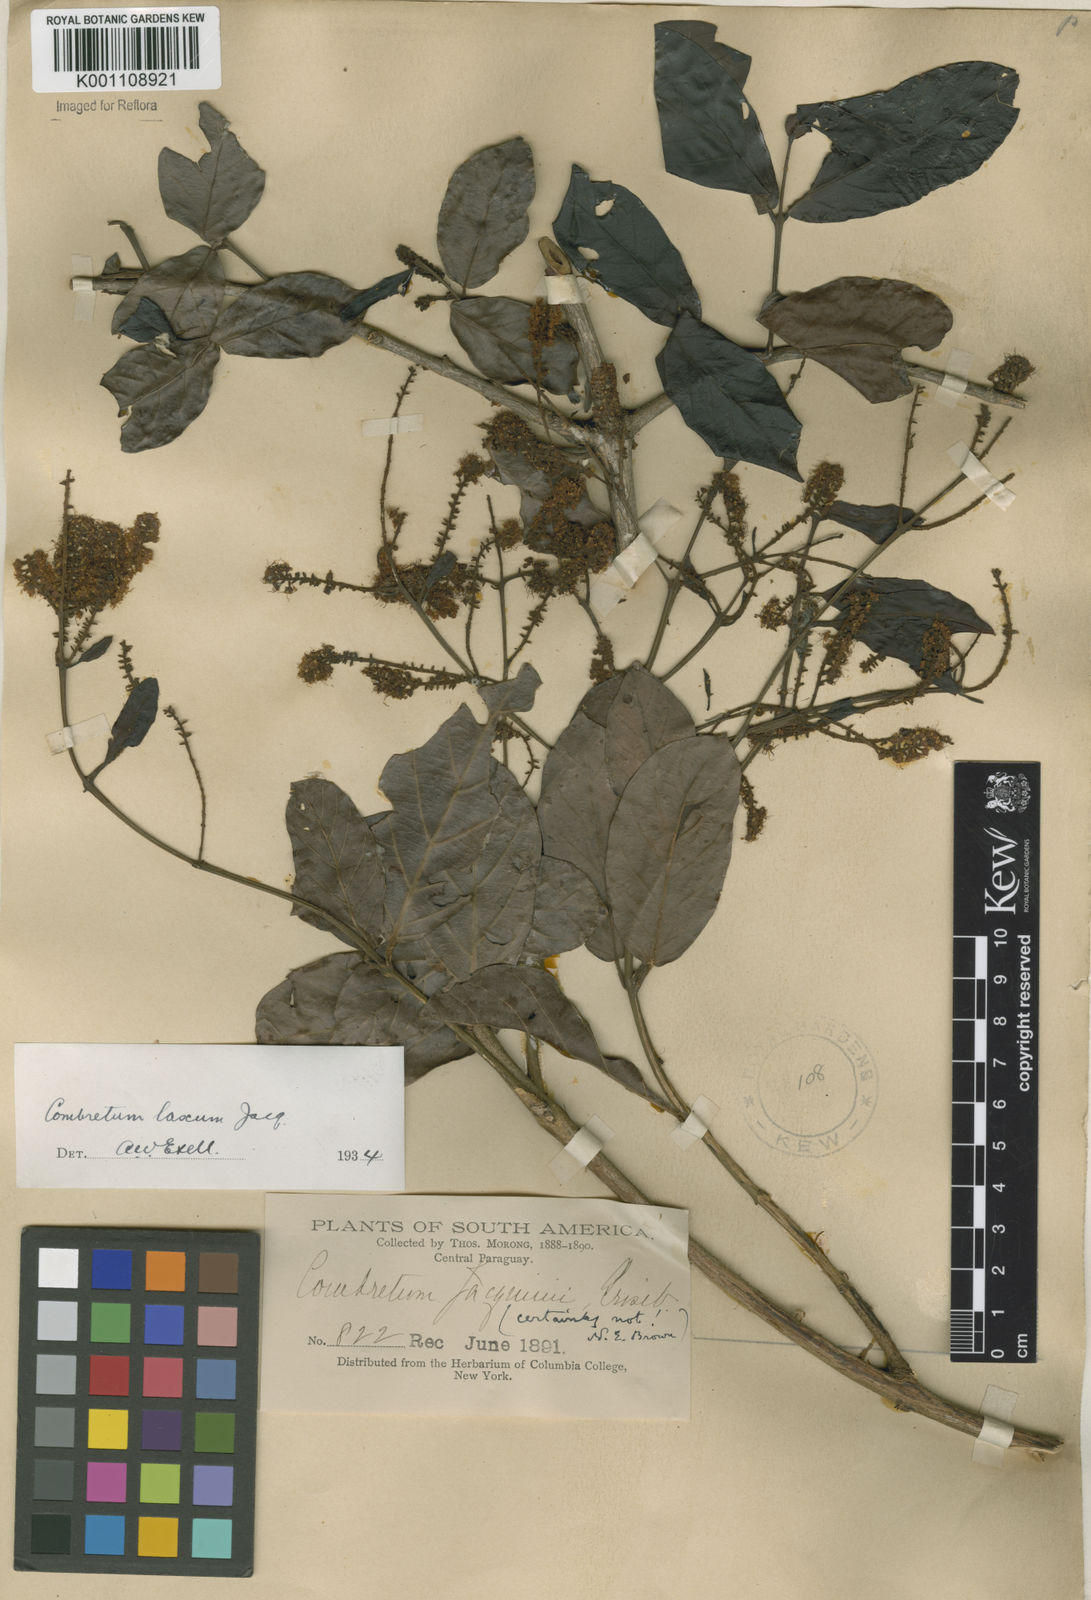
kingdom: Plantae
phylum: Tracheophyta
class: Magnoliopsida
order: Myrtales
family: Combretaceae
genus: Combretum
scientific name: Combretum laxum
